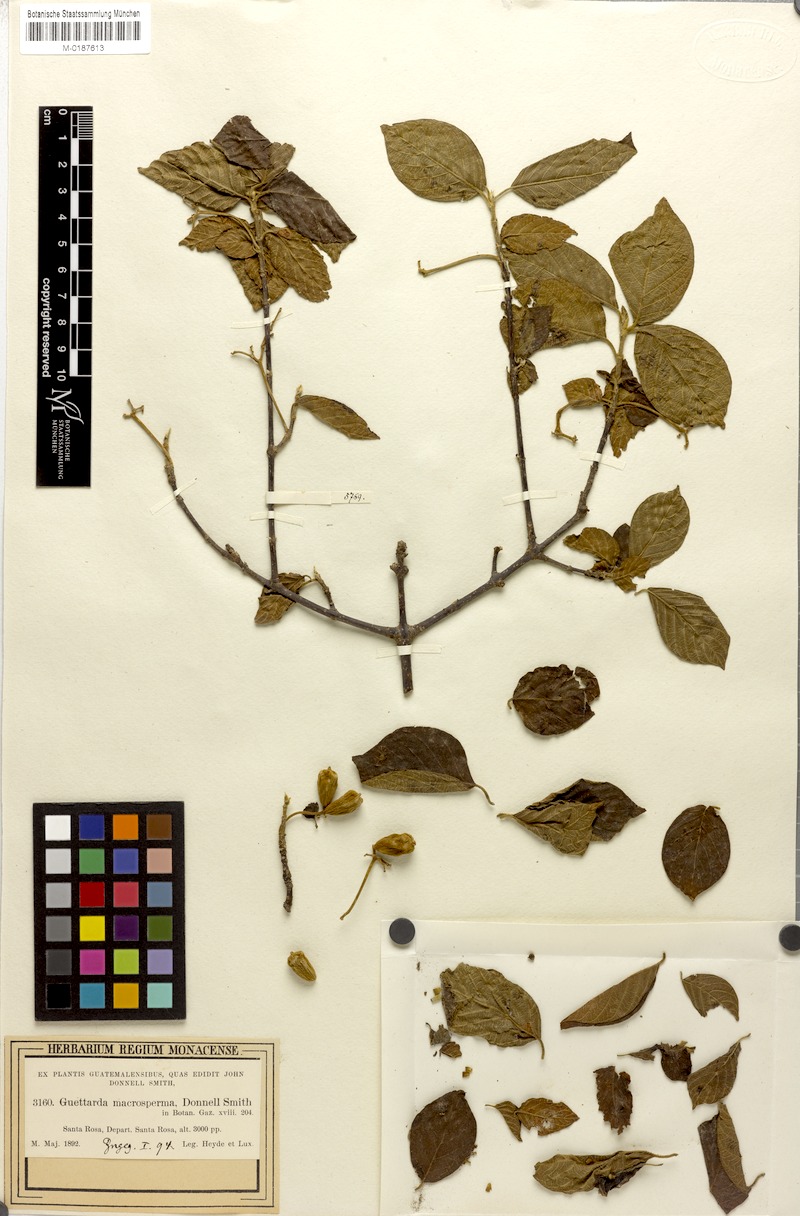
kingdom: Plantae
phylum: Tracheophyta
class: Magnoliopsida
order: Gentianales
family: Rubiaceae
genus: Guettarda
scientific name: Guettarda macrosperma
